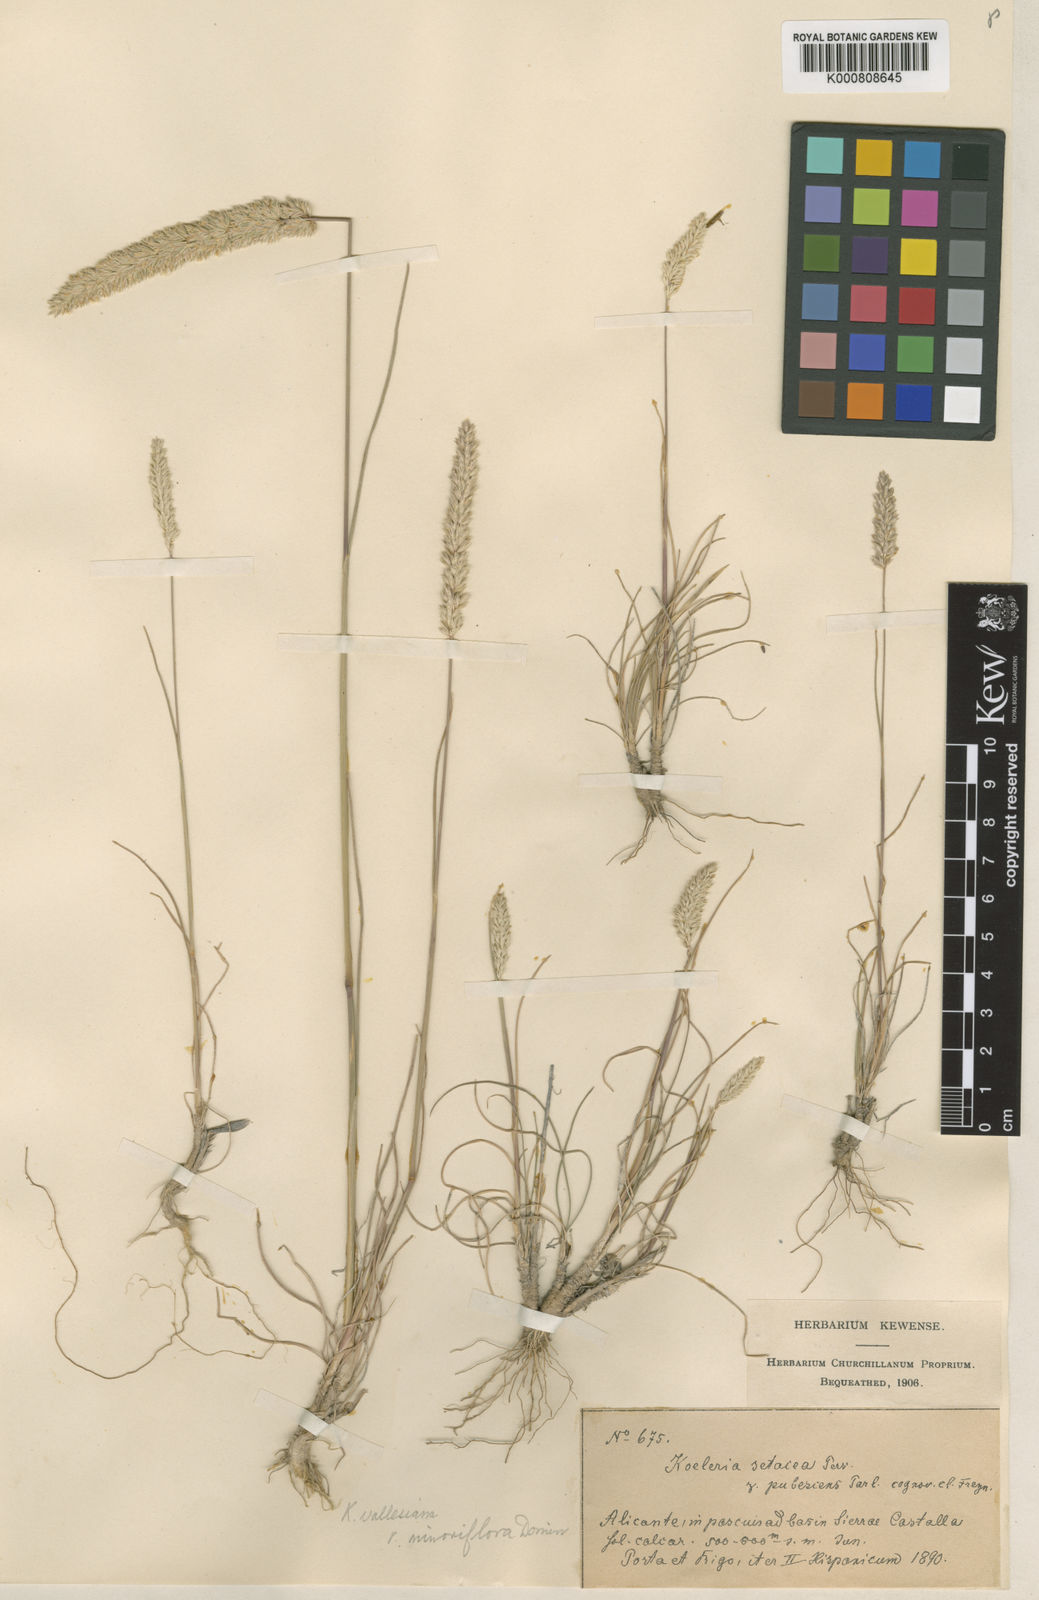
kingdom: Plantae
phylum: Tracheophyta
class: Liliopsida
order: Poales
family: Poaceae
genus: Koeleria
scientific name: Koeleria
